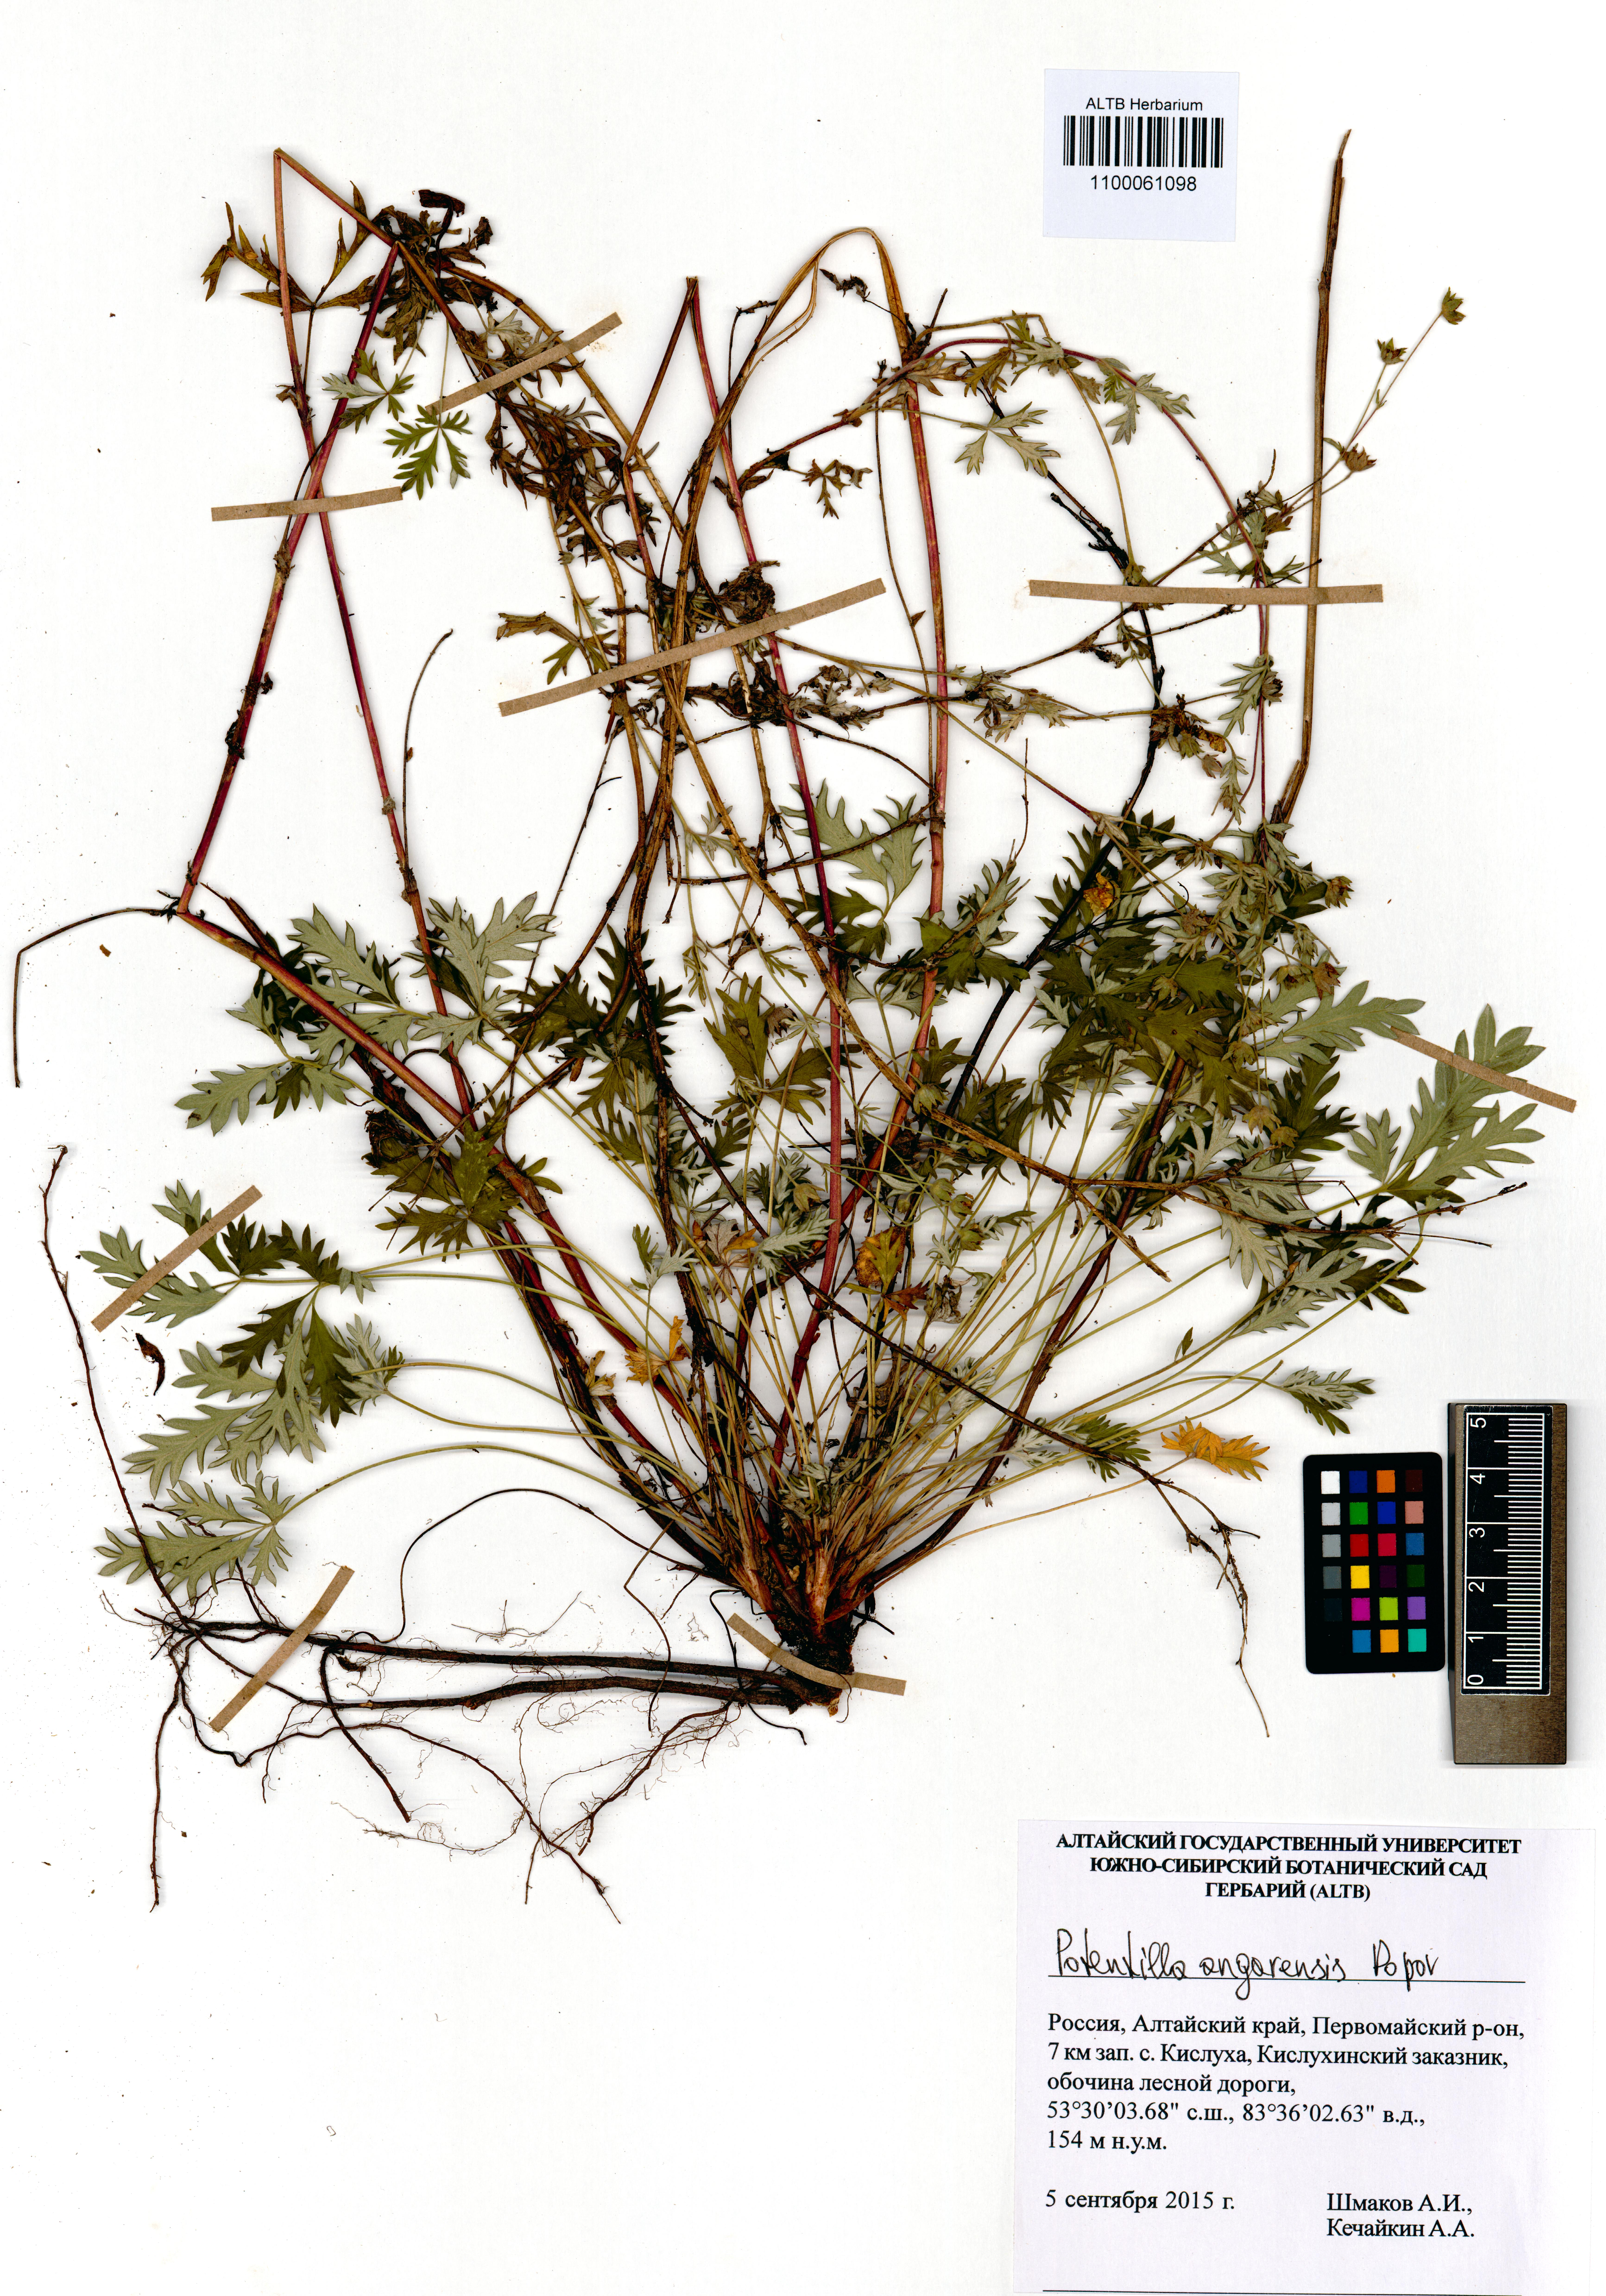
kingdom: Plantae
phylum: Tracheophyta
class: Magnoliopsida
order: Rosales
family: Rosaceae
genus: Potentilla
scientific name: Potentilla angarensis
